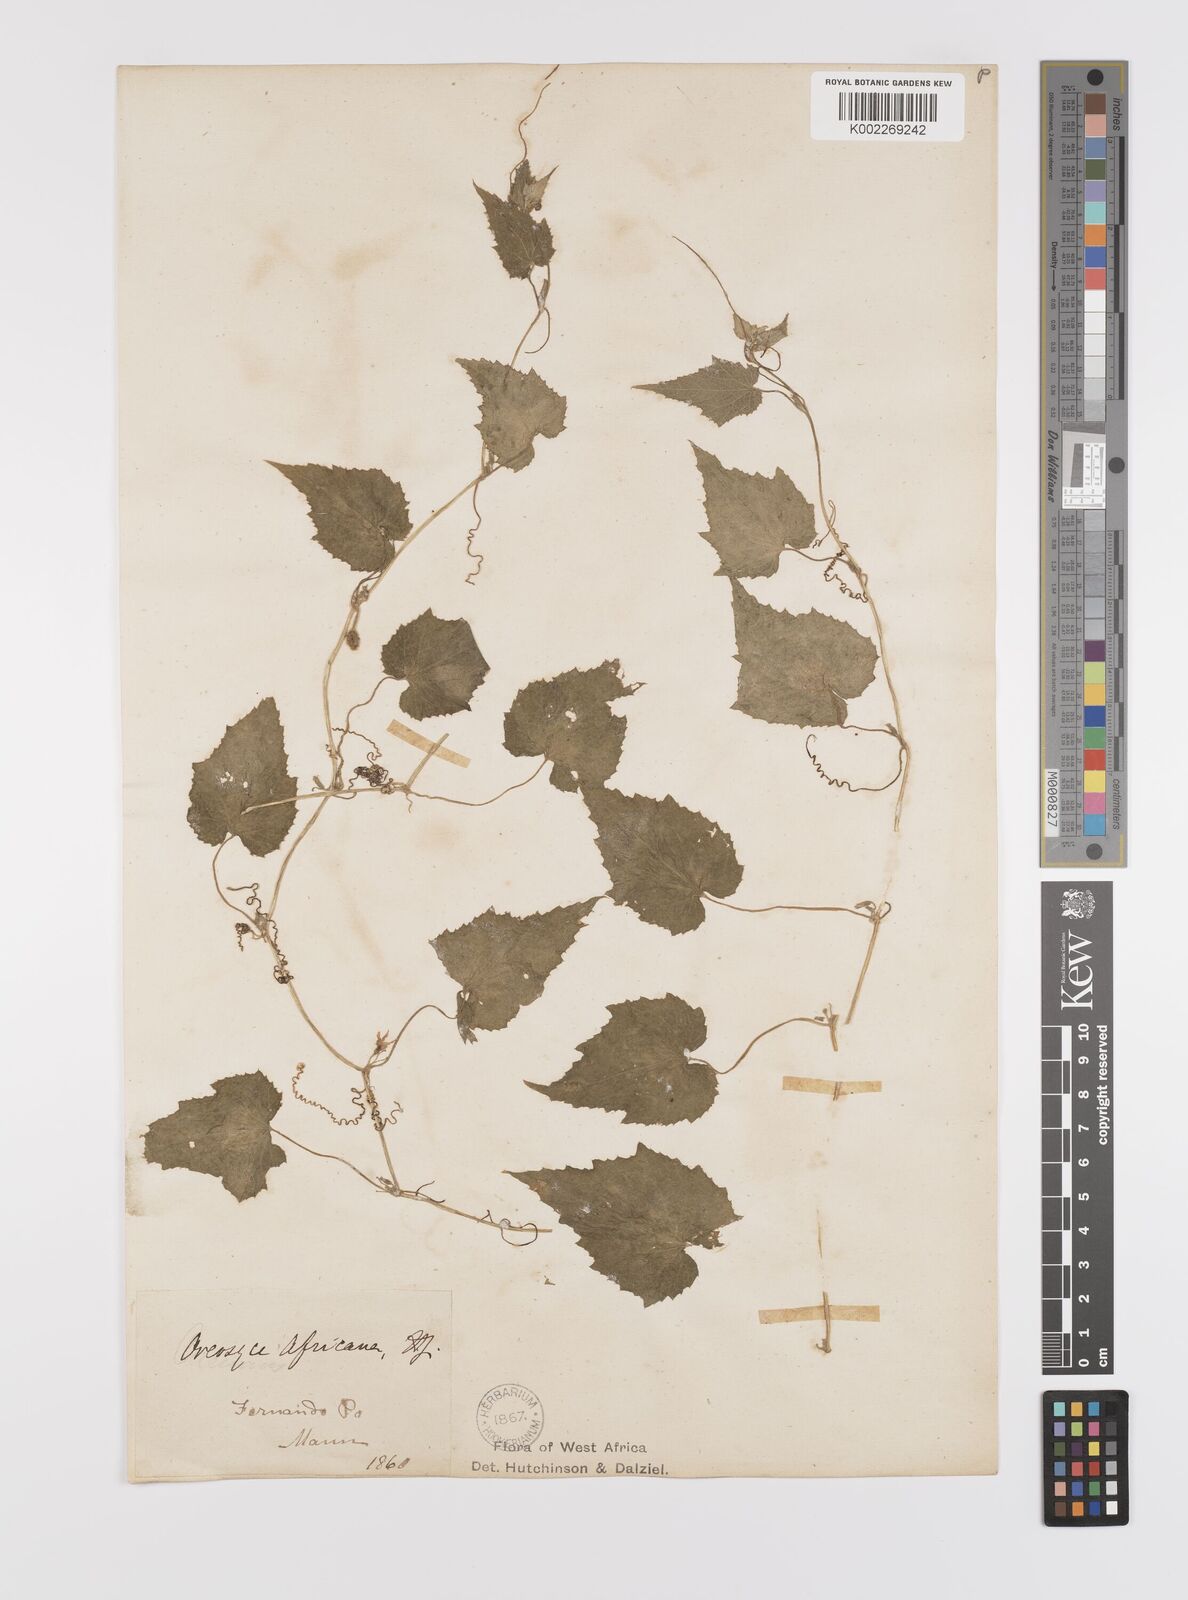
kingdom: Plantae
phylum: Tracheophyta
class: Magnoliopsida
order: Cucurbitales
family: Cucurbitaceae
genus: Cucumis
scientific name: Cucumis oreosyce
